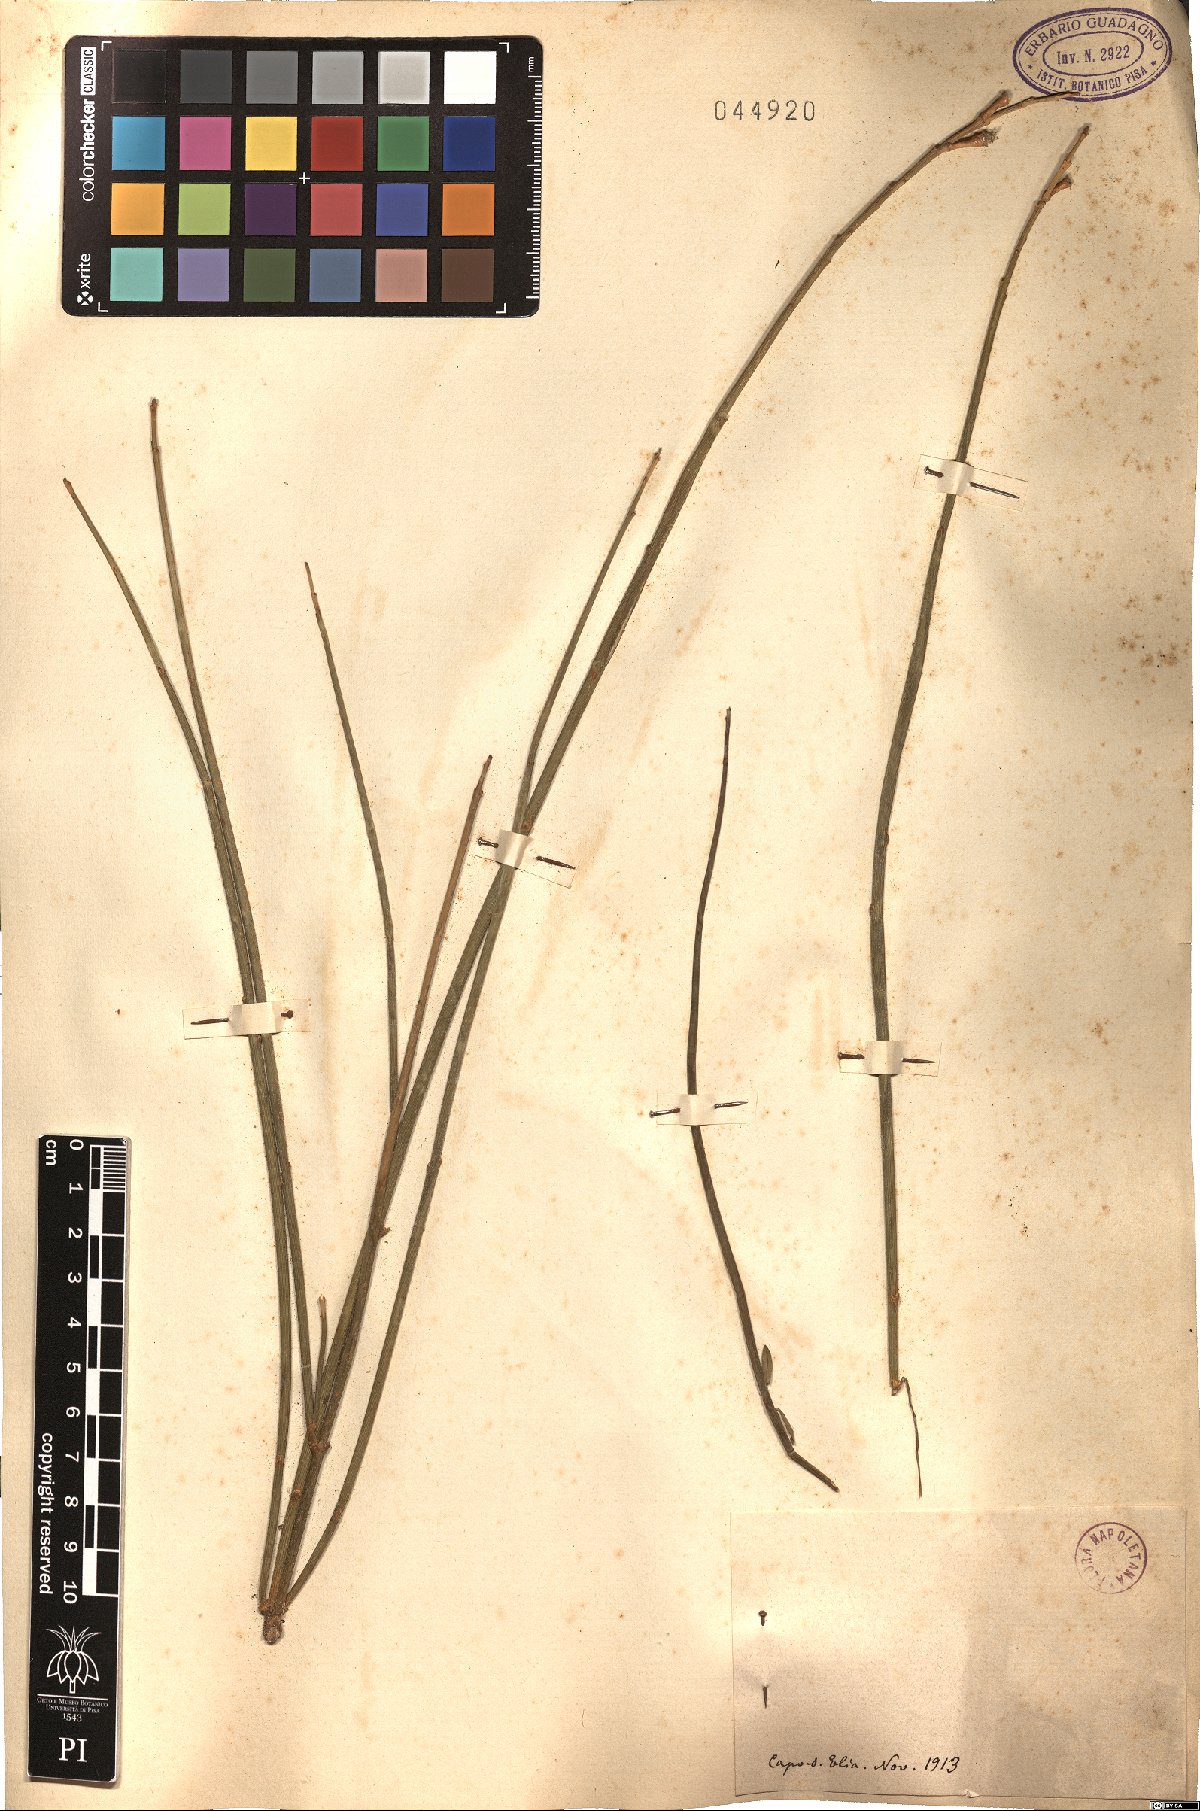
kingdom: Plantae
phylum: Tracheophyta
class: Magnoliopsida
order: Fabales
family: Fabaceae
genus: Spartium
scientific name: Spartium
